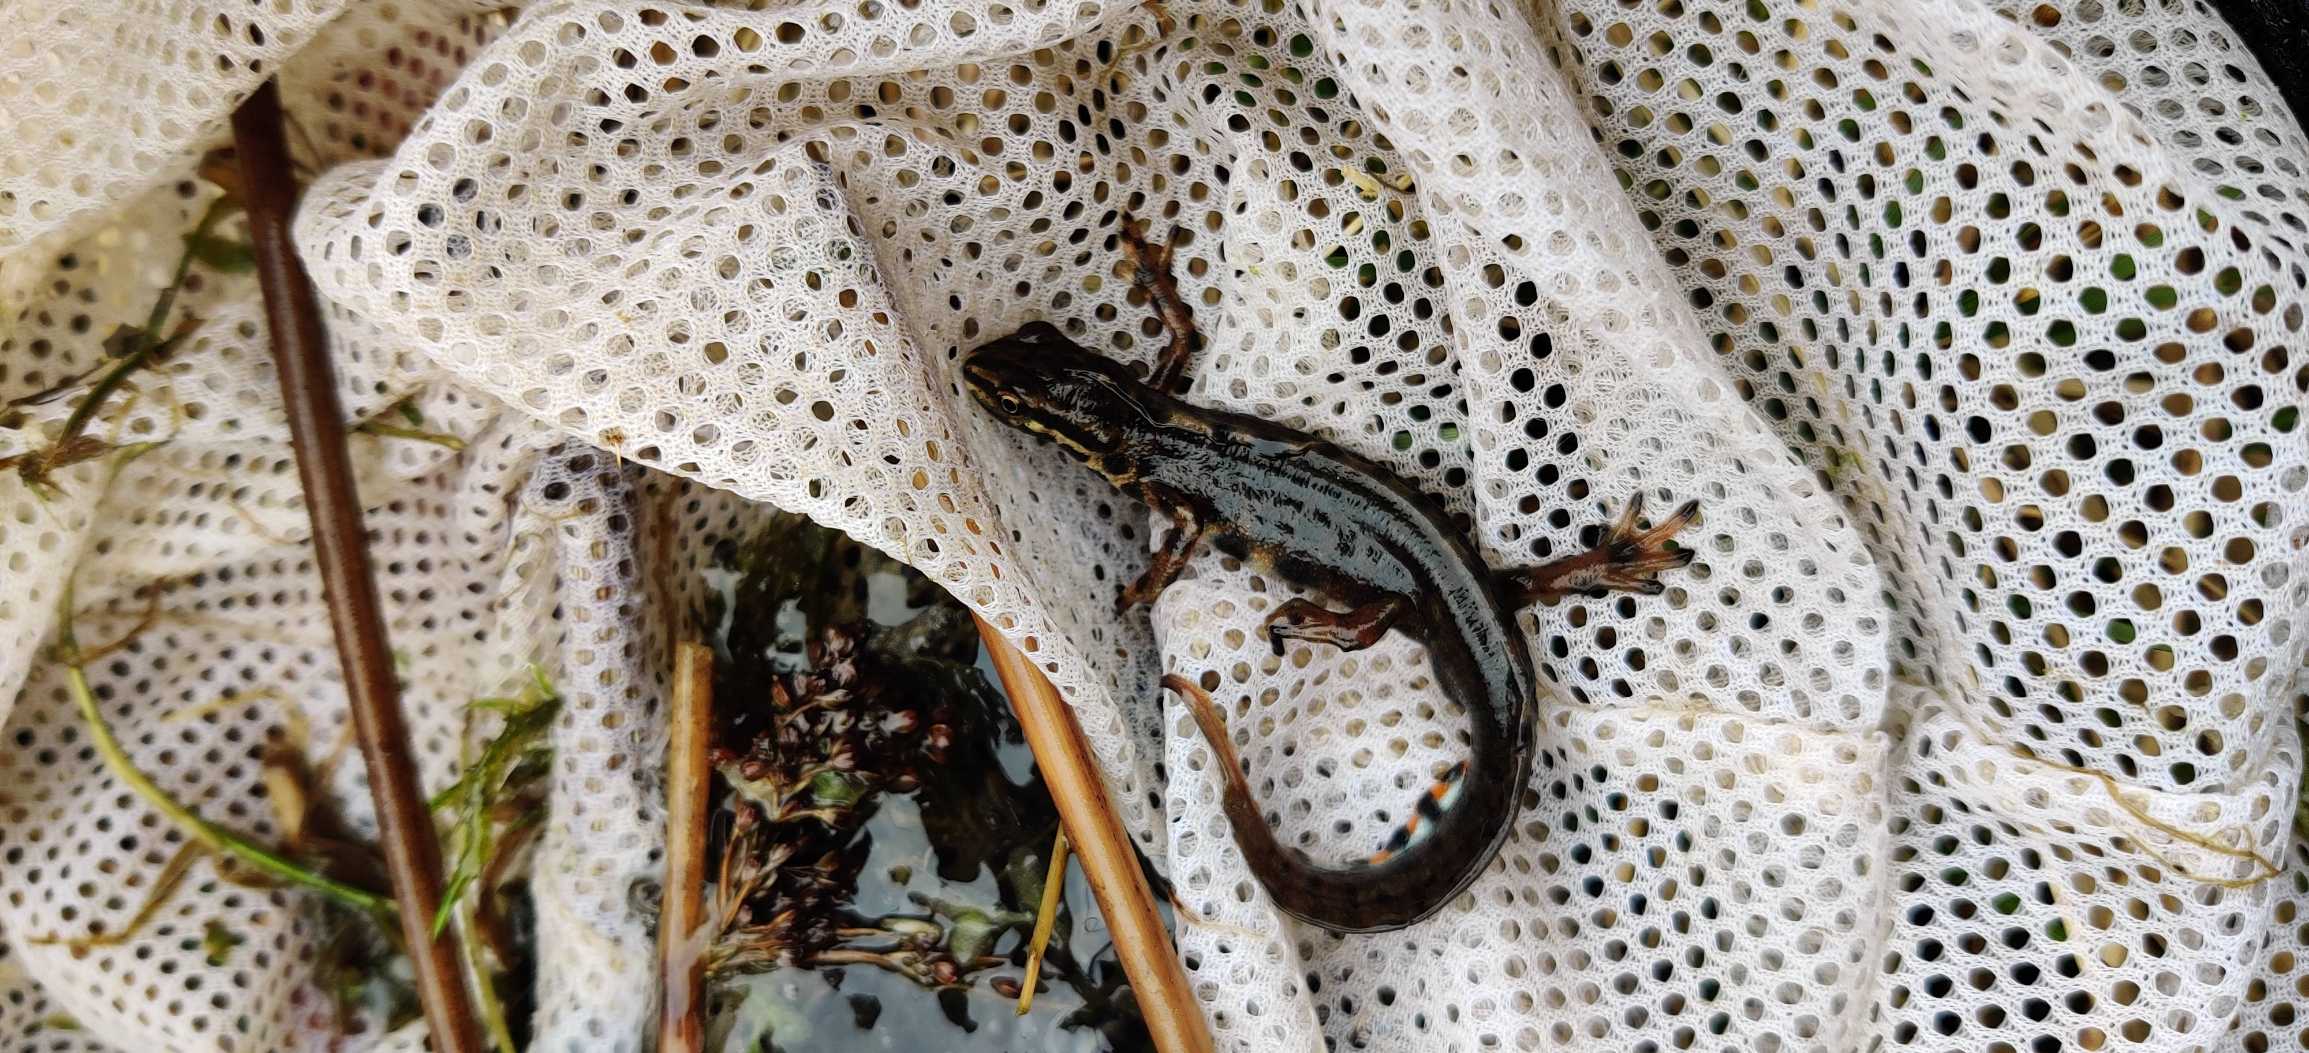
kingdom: Animalia
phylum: Chordata
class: Amphibia
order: Caudata
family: Salamandridae
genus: Lissotriton
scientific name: Lissotriton vulgaris
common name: Lille vandsalamander
